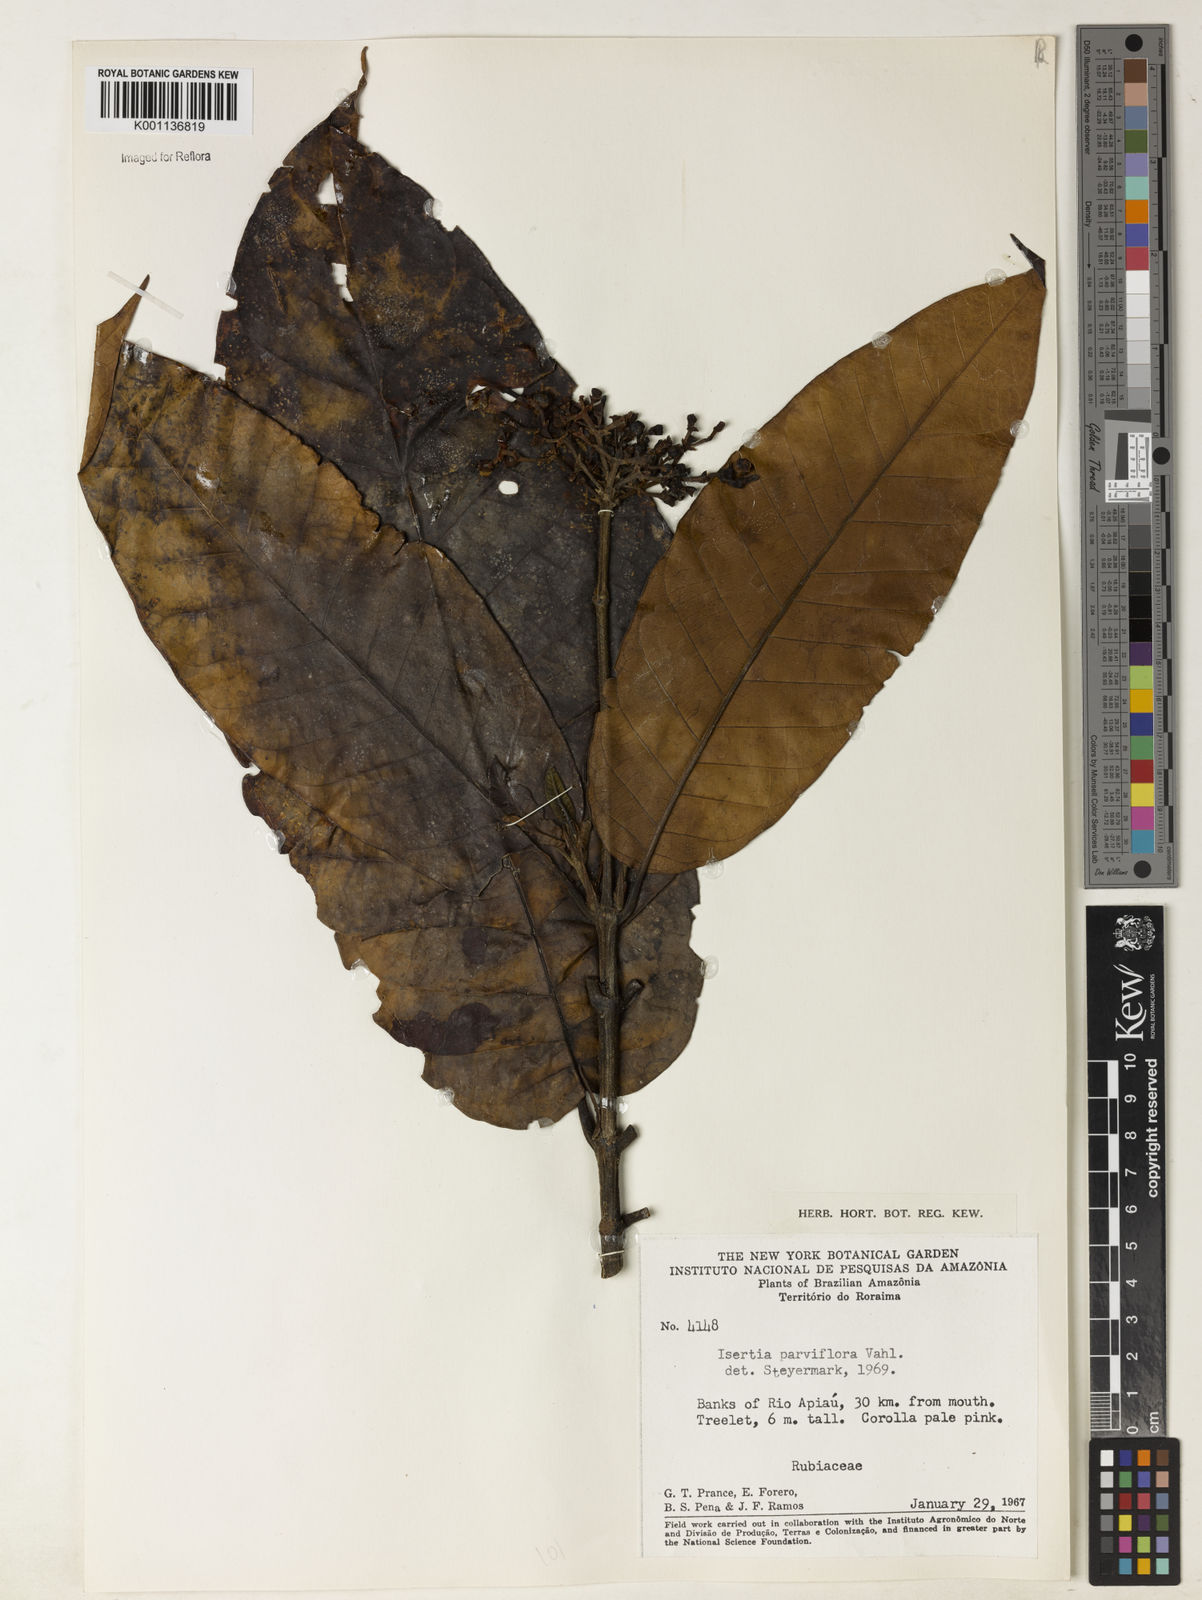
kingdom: Plantae
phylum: Tracheophyta
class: Magnoliopsida
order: Gentianales
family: Rubiaceae
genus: Isertia
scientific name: Isertia parviflora
